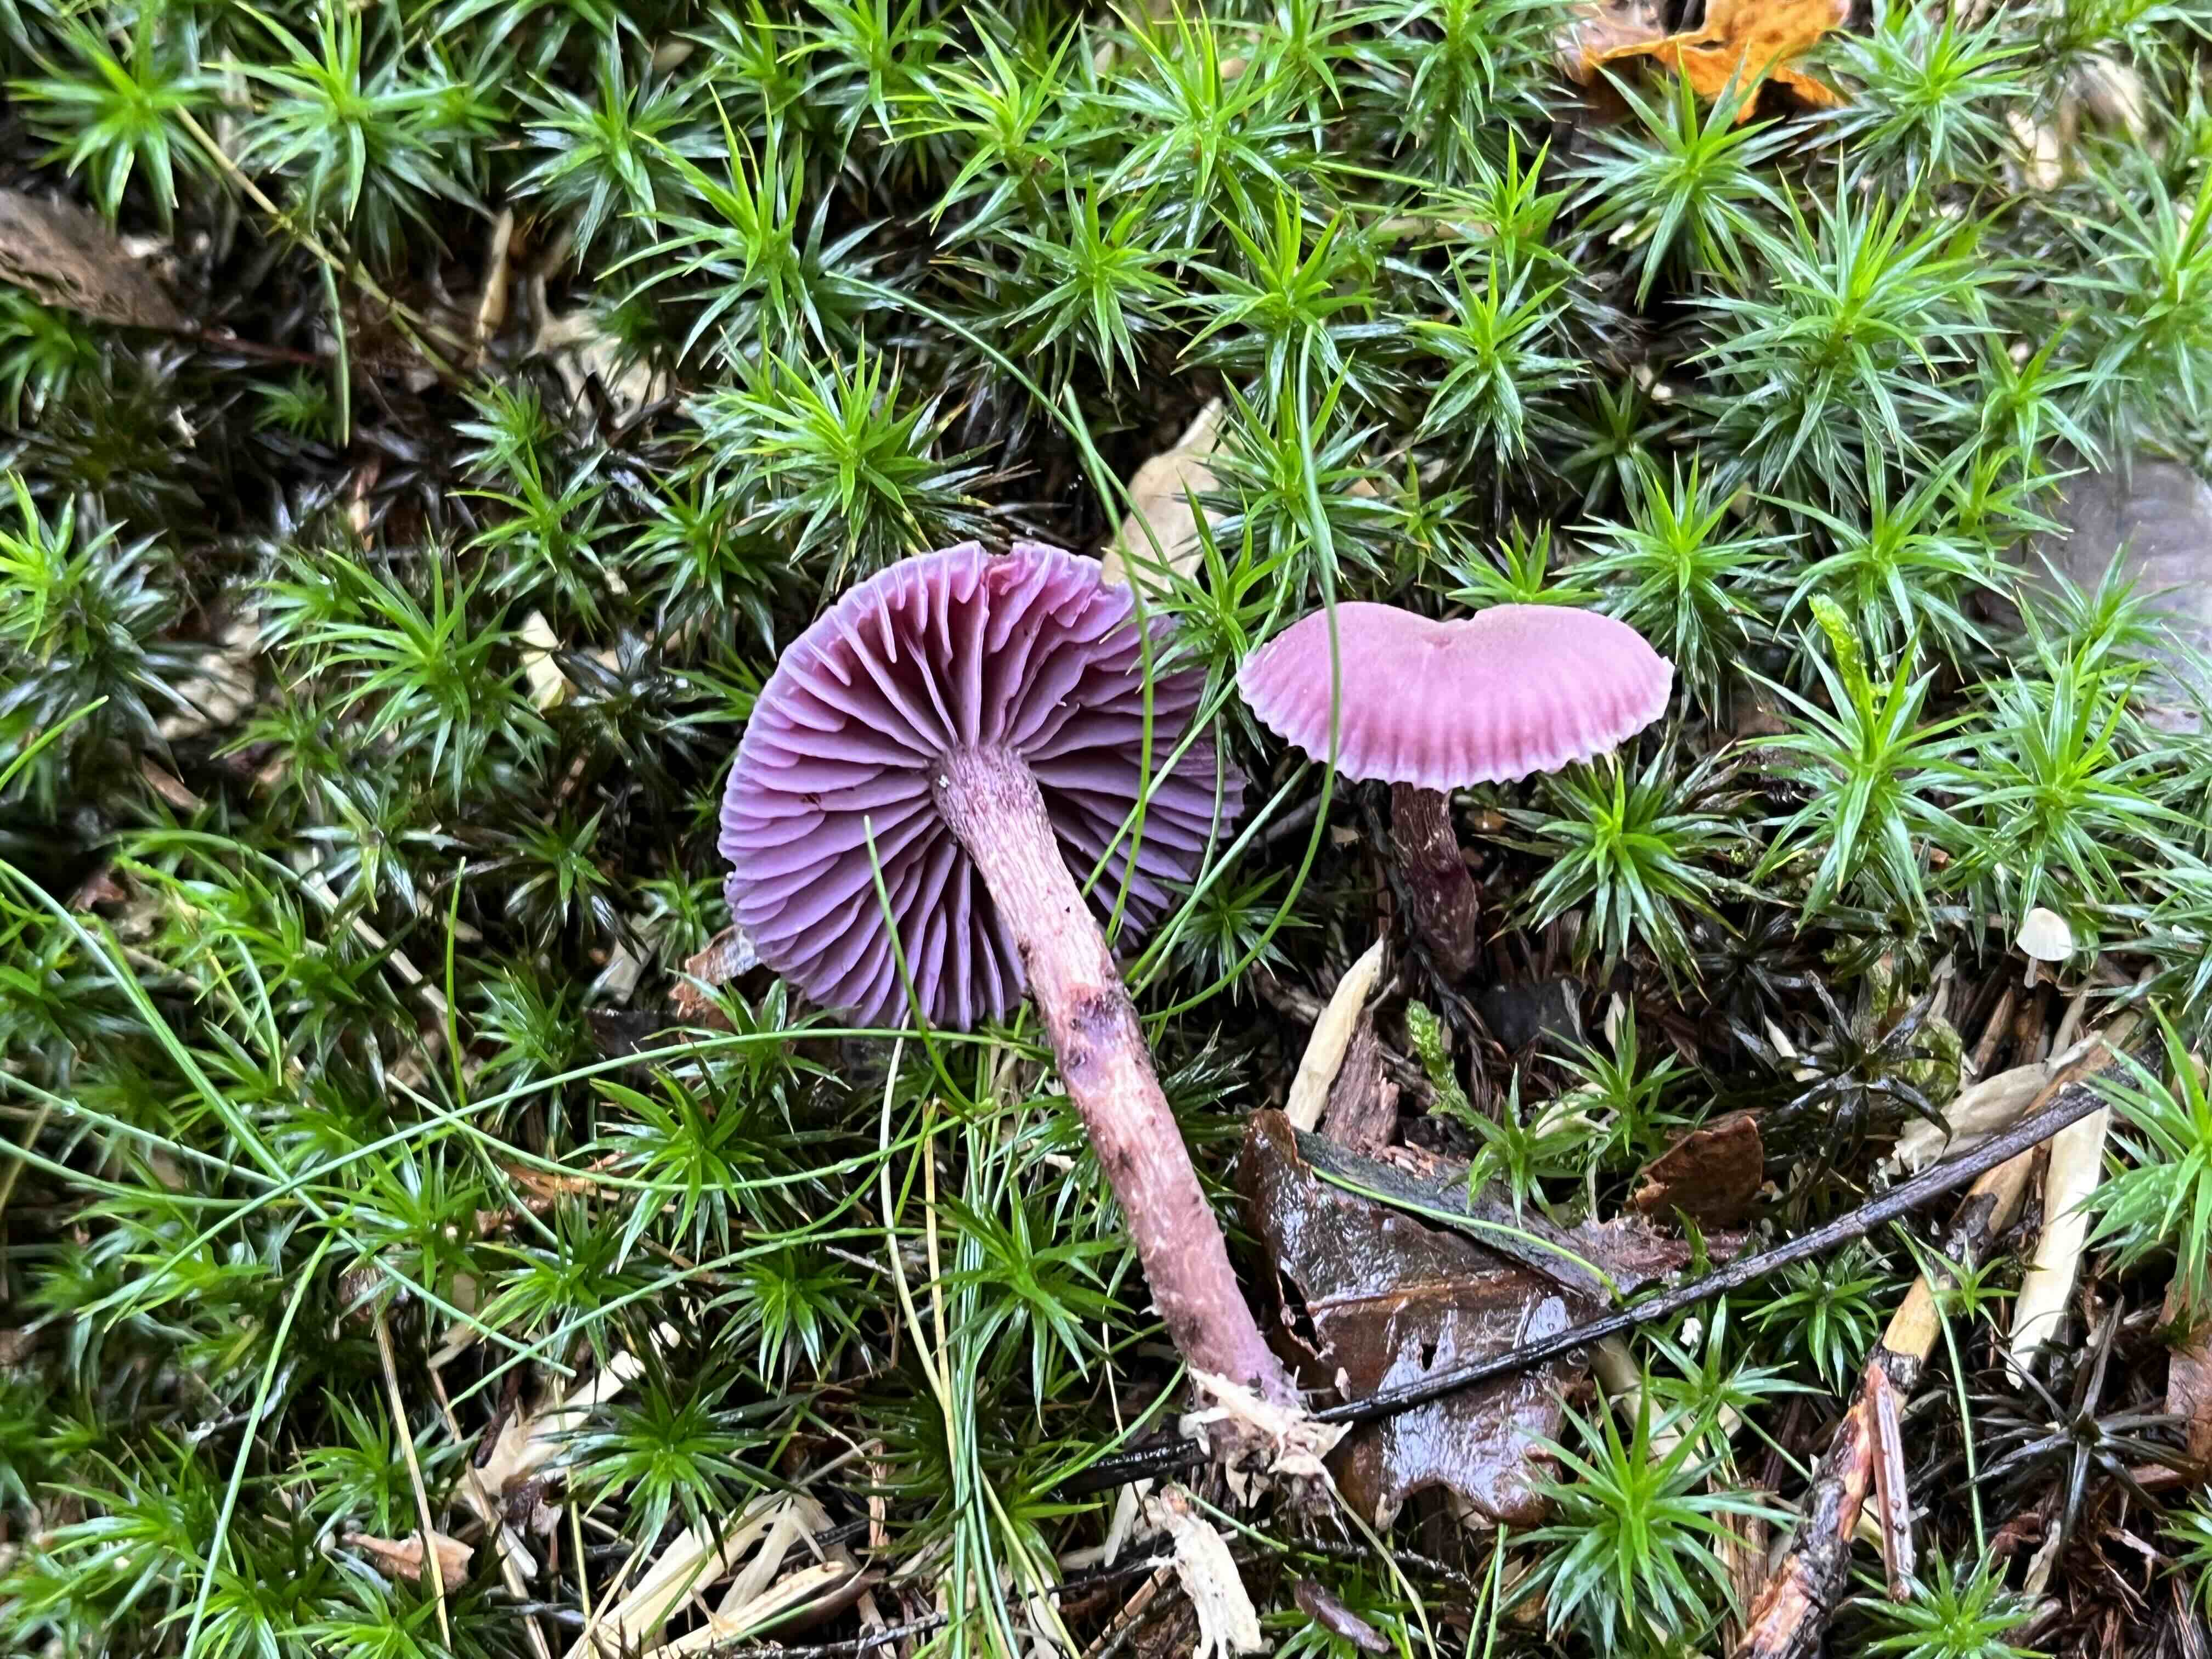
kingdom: Fungi
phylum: Basidiomycota
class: Agaricomycetes
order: Agaricales
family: Hydnangiaceae
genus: Laccaria
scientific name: Laccaria amethystina
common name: violet ametysthat
